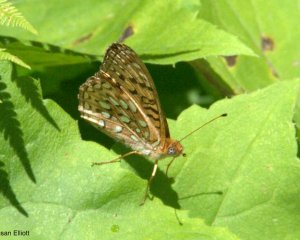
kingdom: Animalia
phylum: Arthropoda
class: Insecta
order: Lepidoptera
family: Nymphalidae
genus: Speyeria
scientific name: Speyeria atlantis
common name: Atlantis Fritillary
